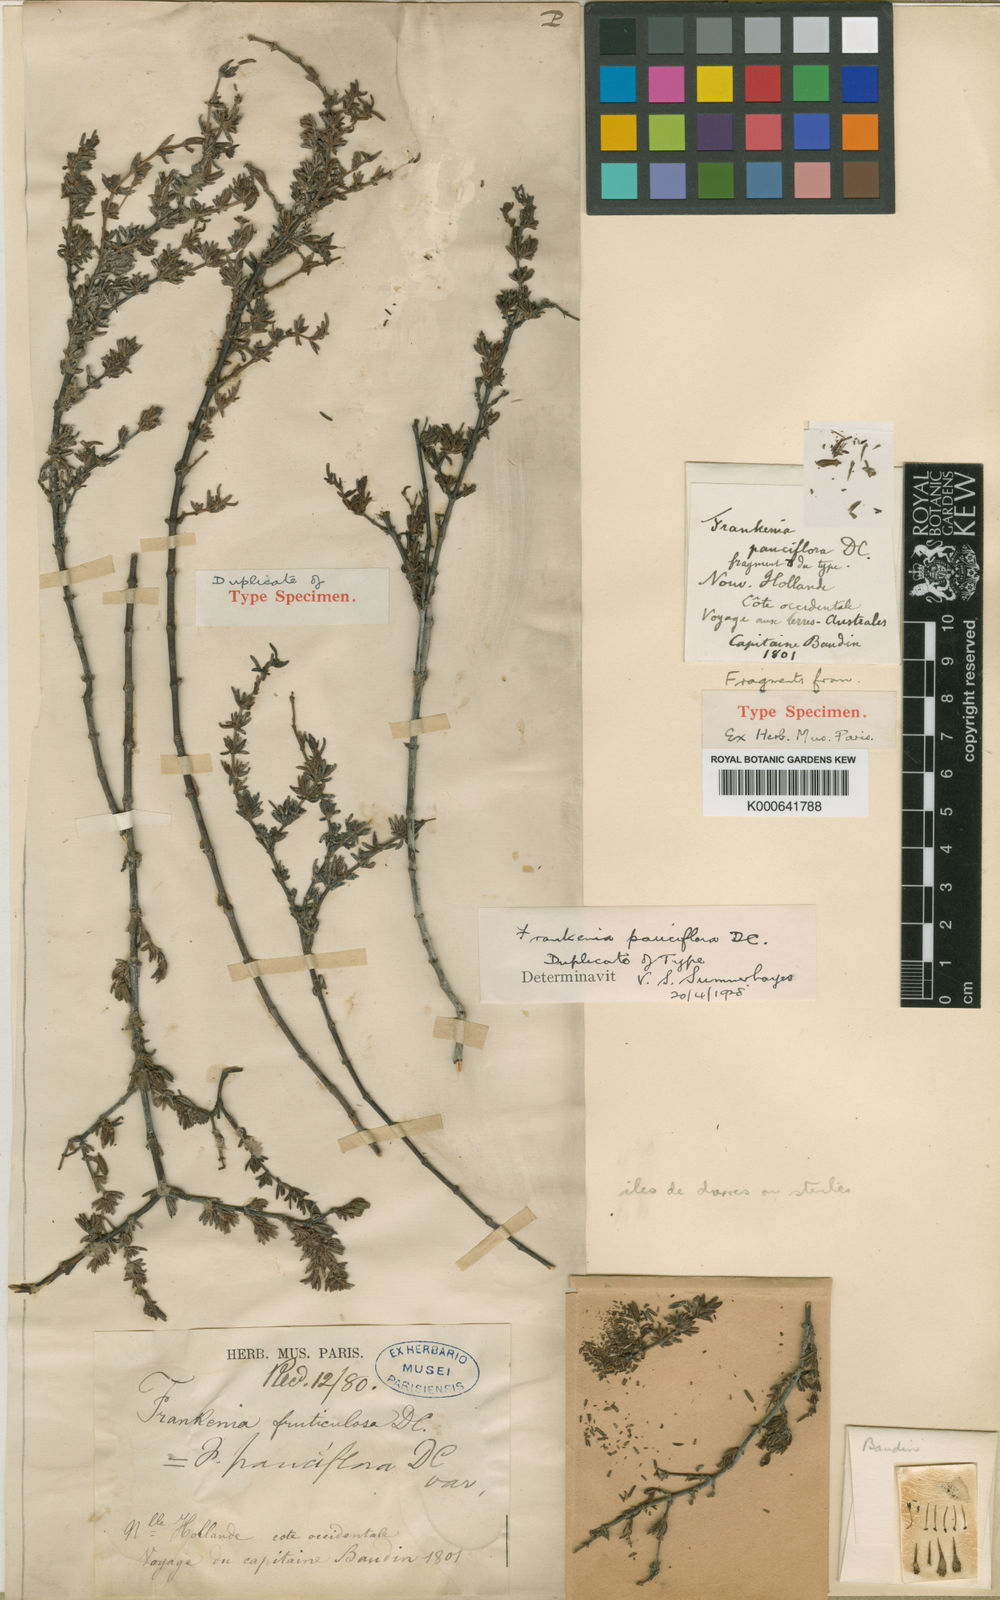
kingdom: Plantae
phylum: Tracheophyta
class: Magnoliopsida
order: Caryophyllales
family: Frankeniaceae
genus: Frankenia
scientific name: Frankenia pauciflora
